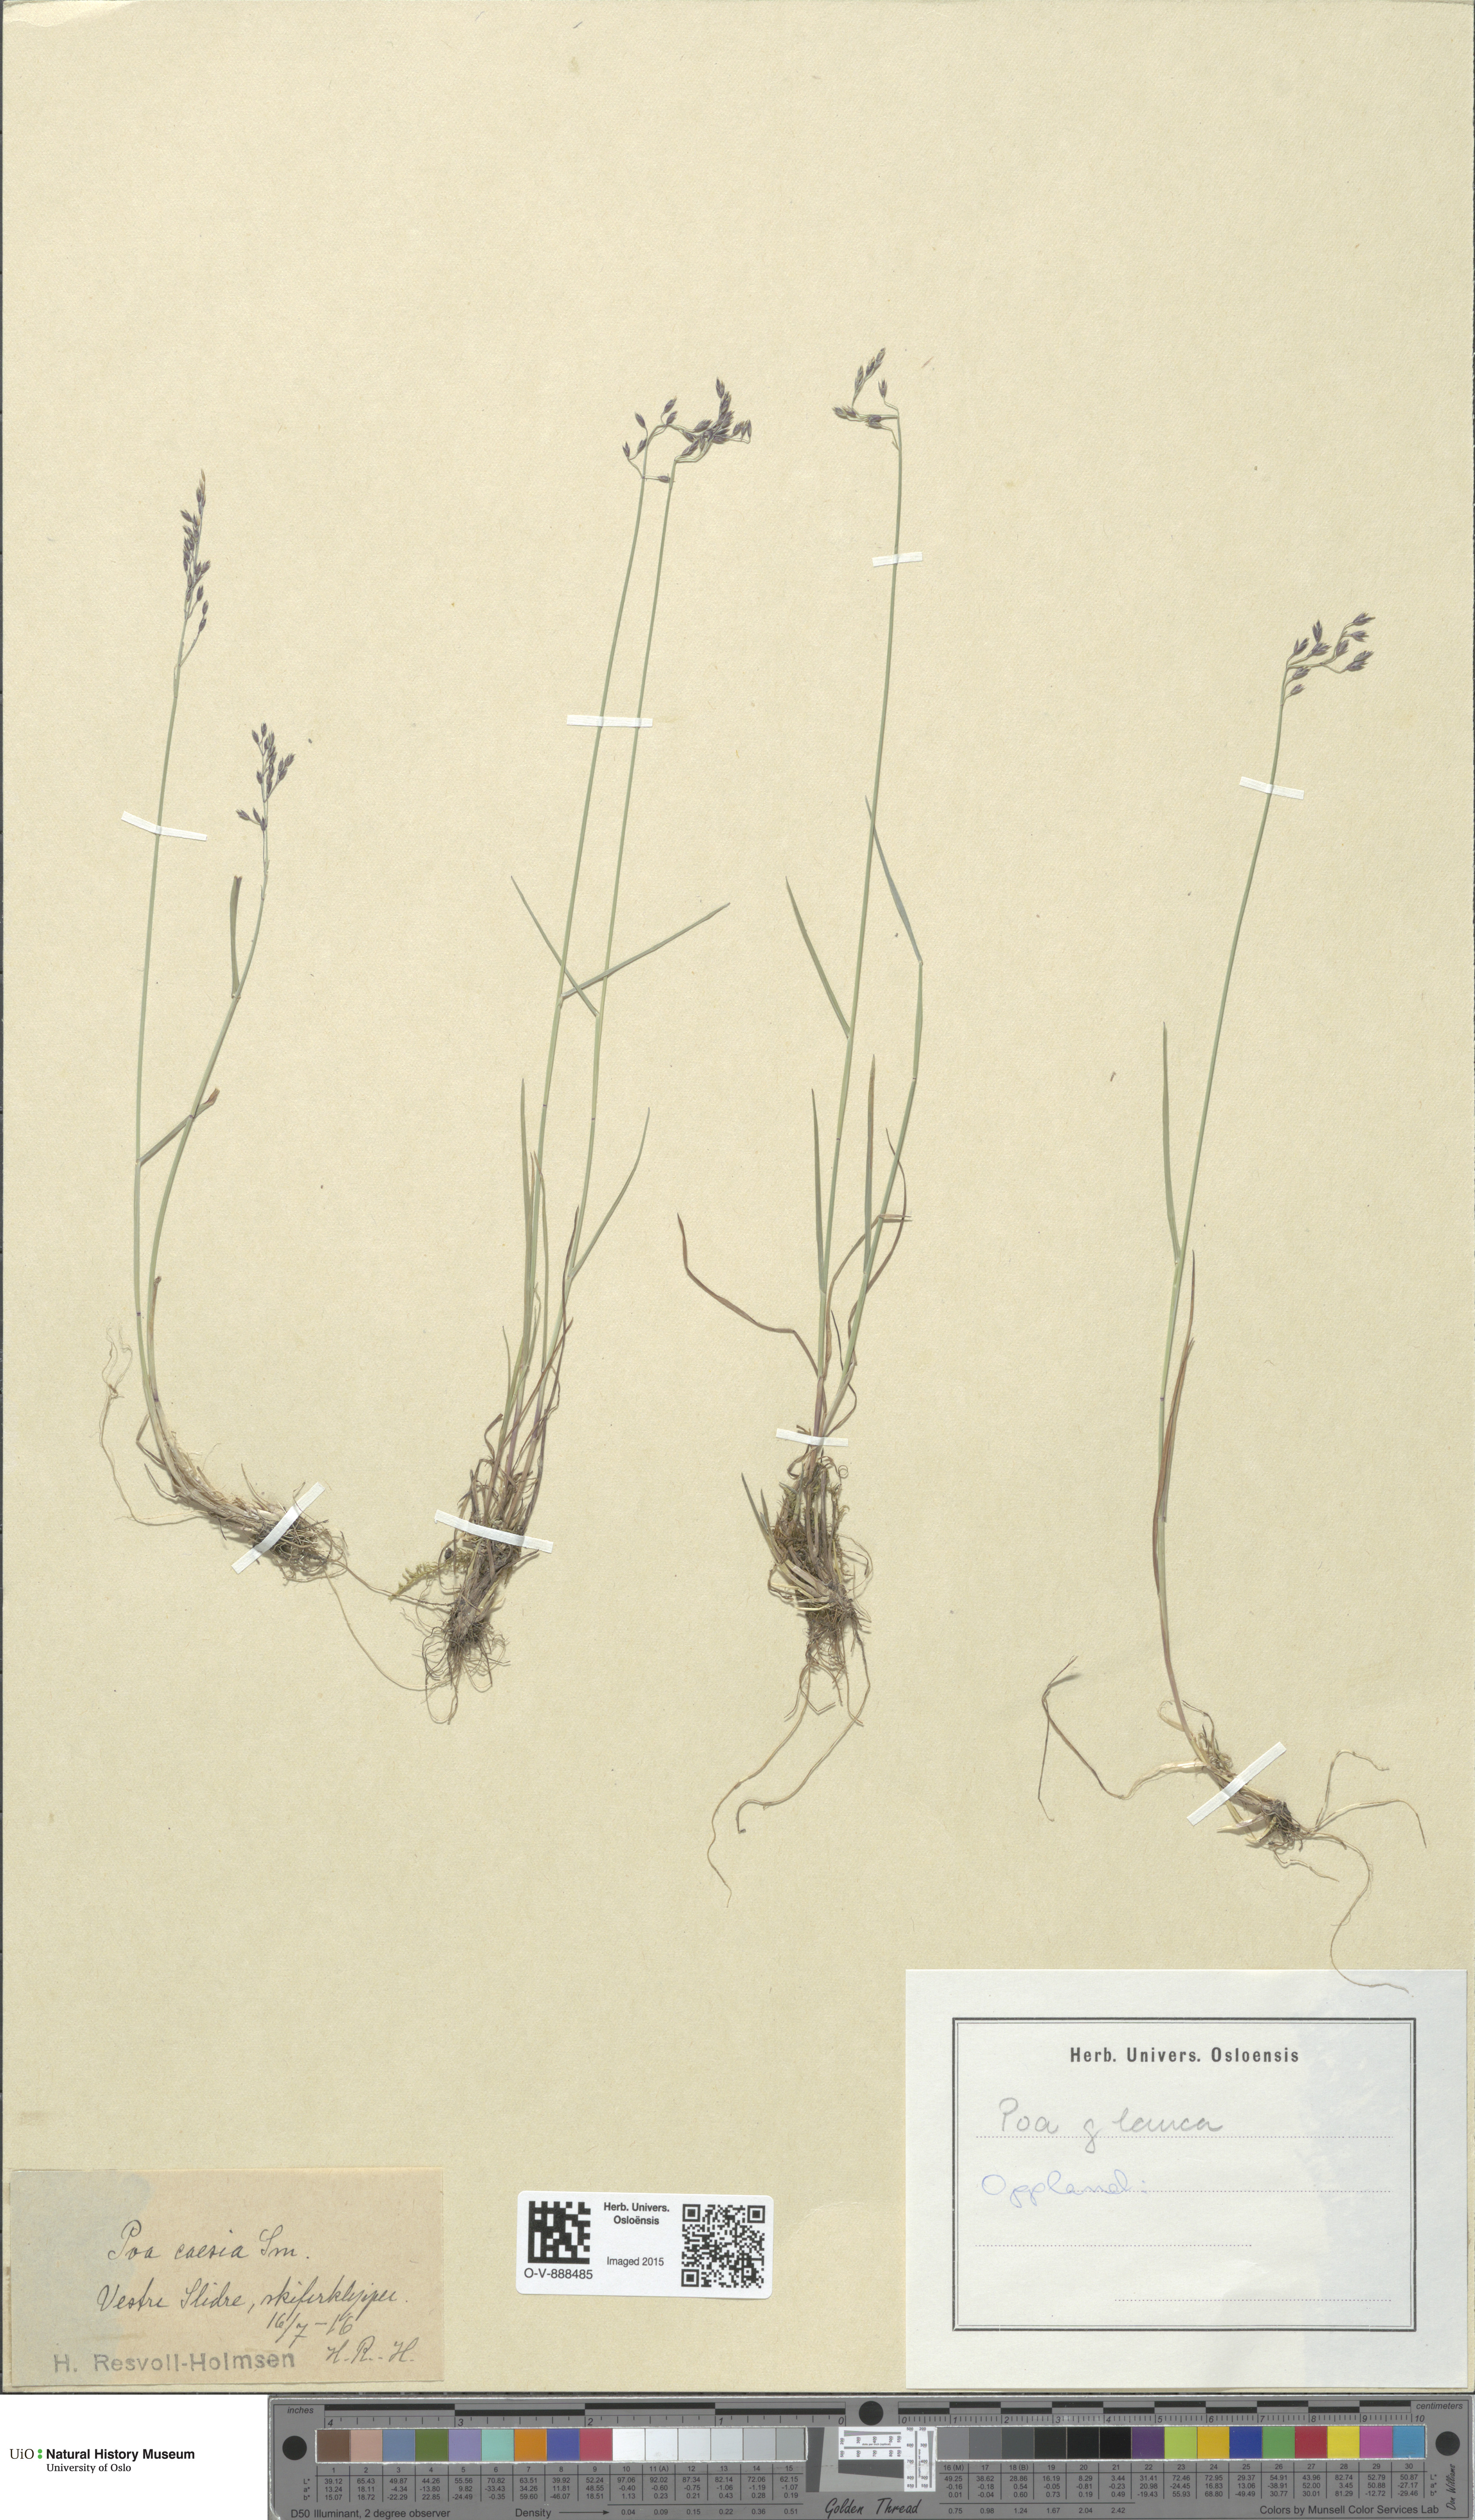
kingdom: Plantae
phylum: Tracheophyta
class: Liliopsida
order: Poales
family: Poaceae
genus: Poa
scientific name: Poa glauca
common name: Glaucous bluegrass
